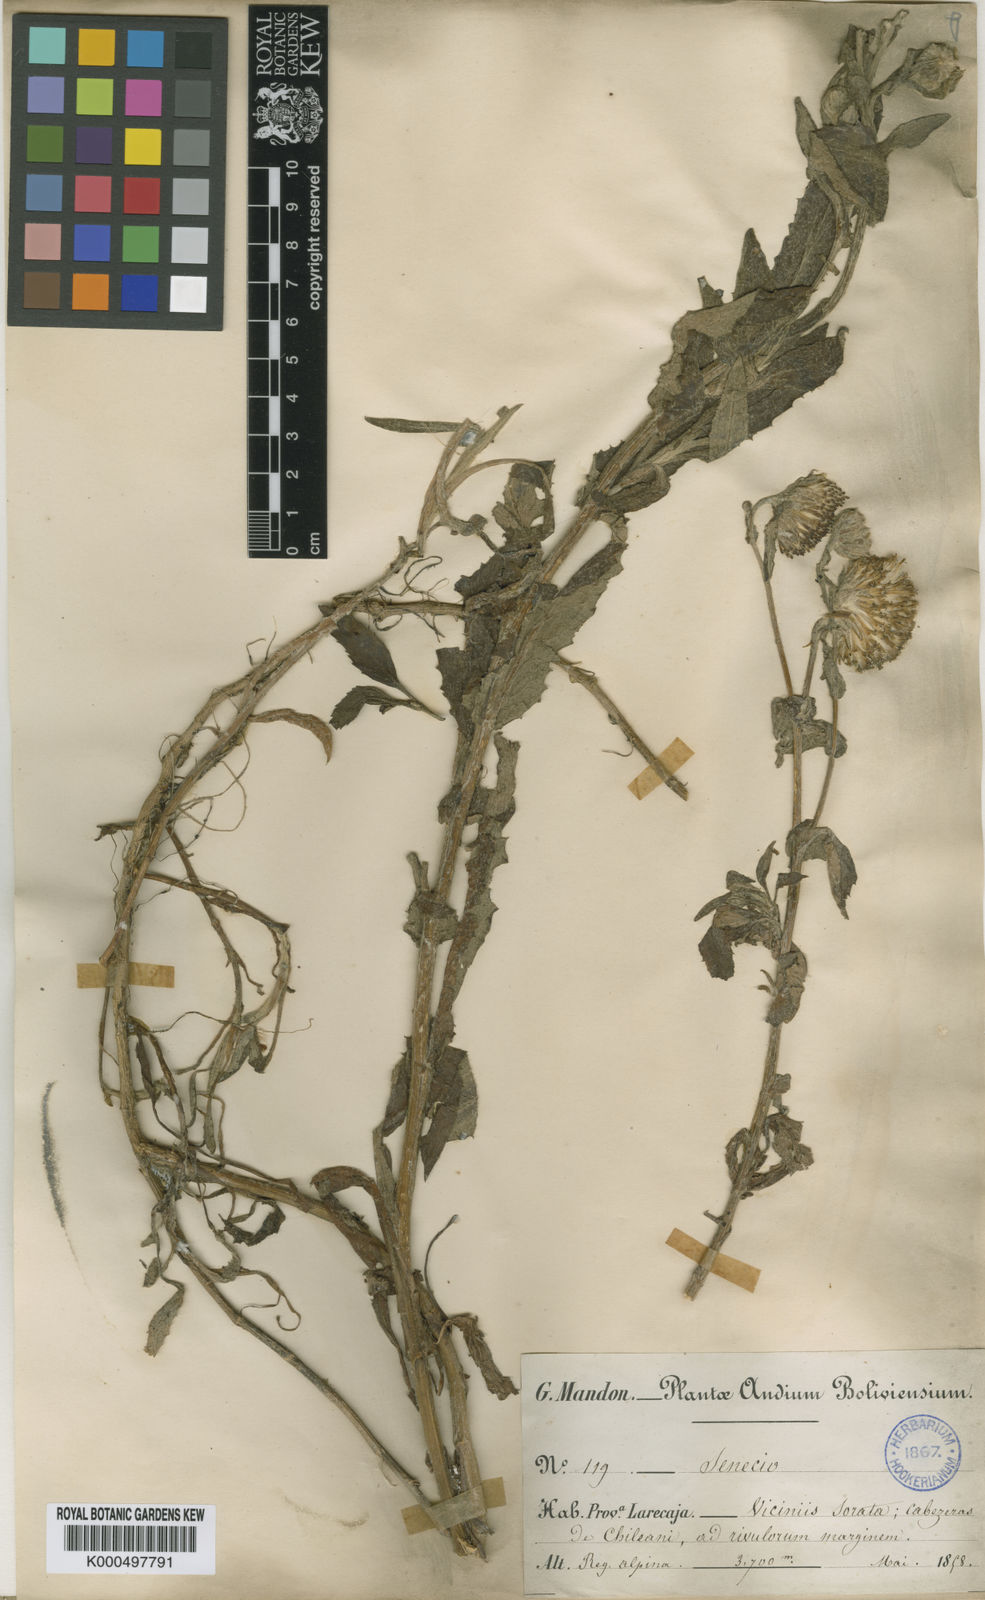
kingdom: Plantae
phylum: Tracheophyta
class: Magnoliopsida
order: Asterales
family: Asteraceae
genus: Senecio
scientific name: Senecio octophyllus
